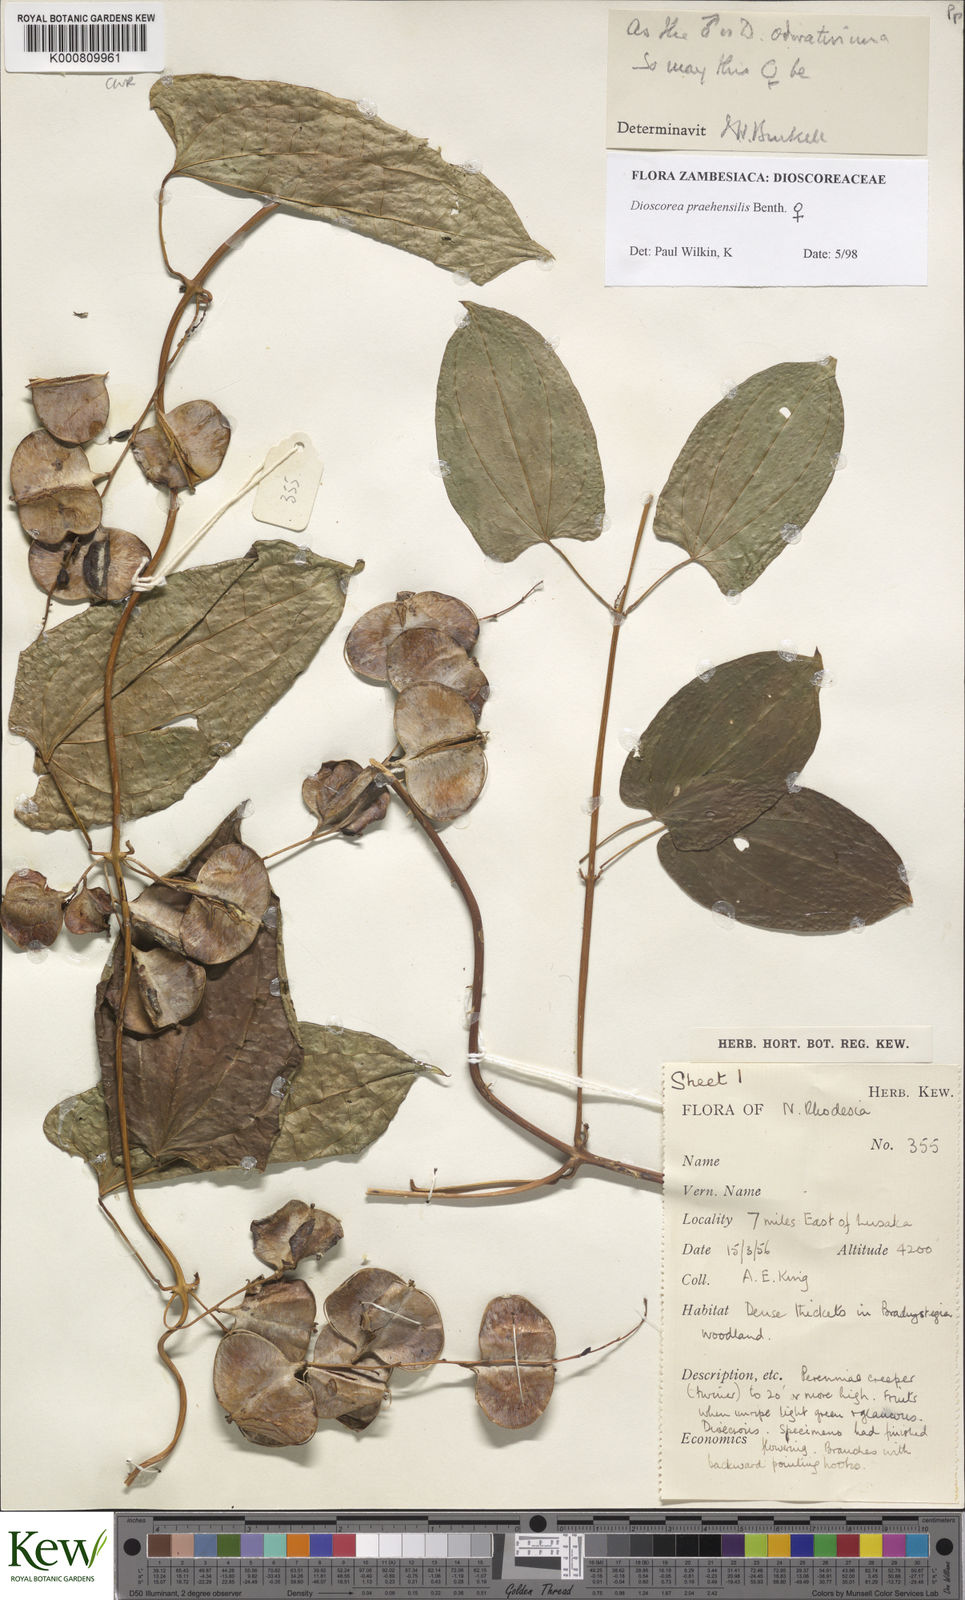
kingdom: Plantae
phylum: Tracheophyta
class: Liliopsida
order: Dioscoreales
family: Dioscoreaceae
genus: Dioscorea
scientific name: Dioscorea praehensilis
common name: Bush yam
